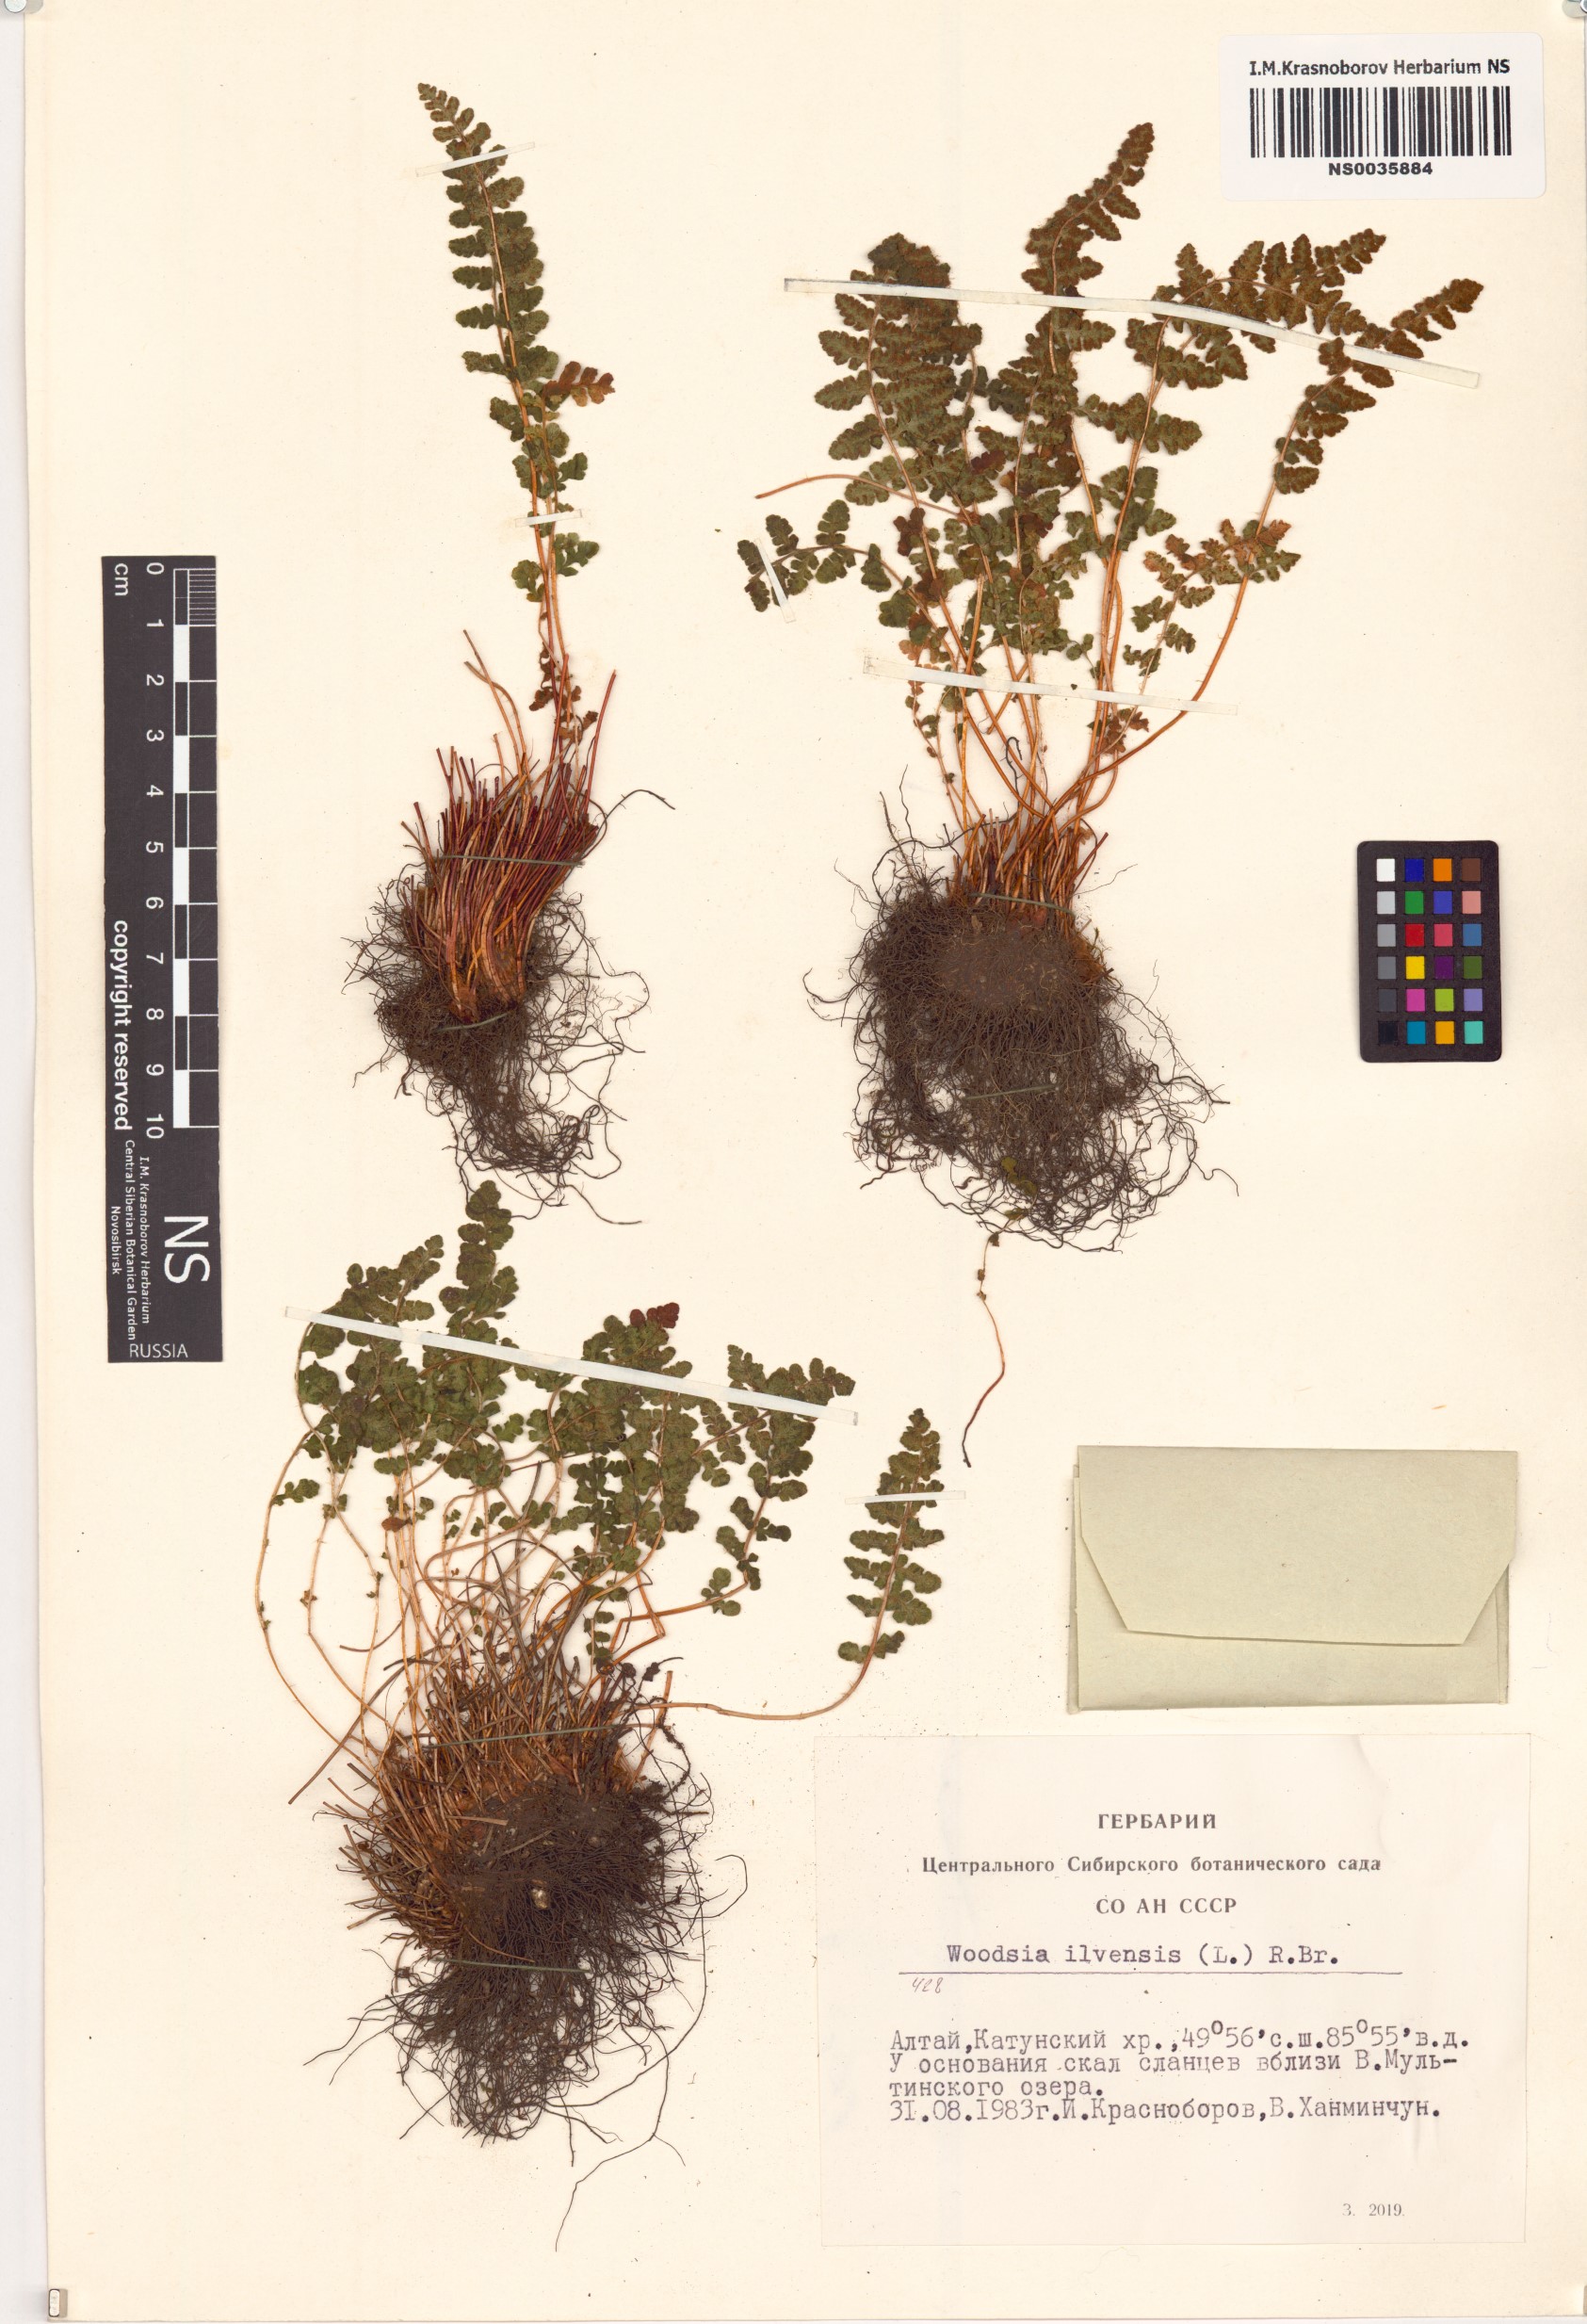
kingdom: Plantae
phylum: Tracheophyta
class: Polypodiopsida
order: Polypodiales
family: Woodsiaceae
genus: Woodsia
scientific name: Woodsia ilvensis
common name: Fragrant woodsia
